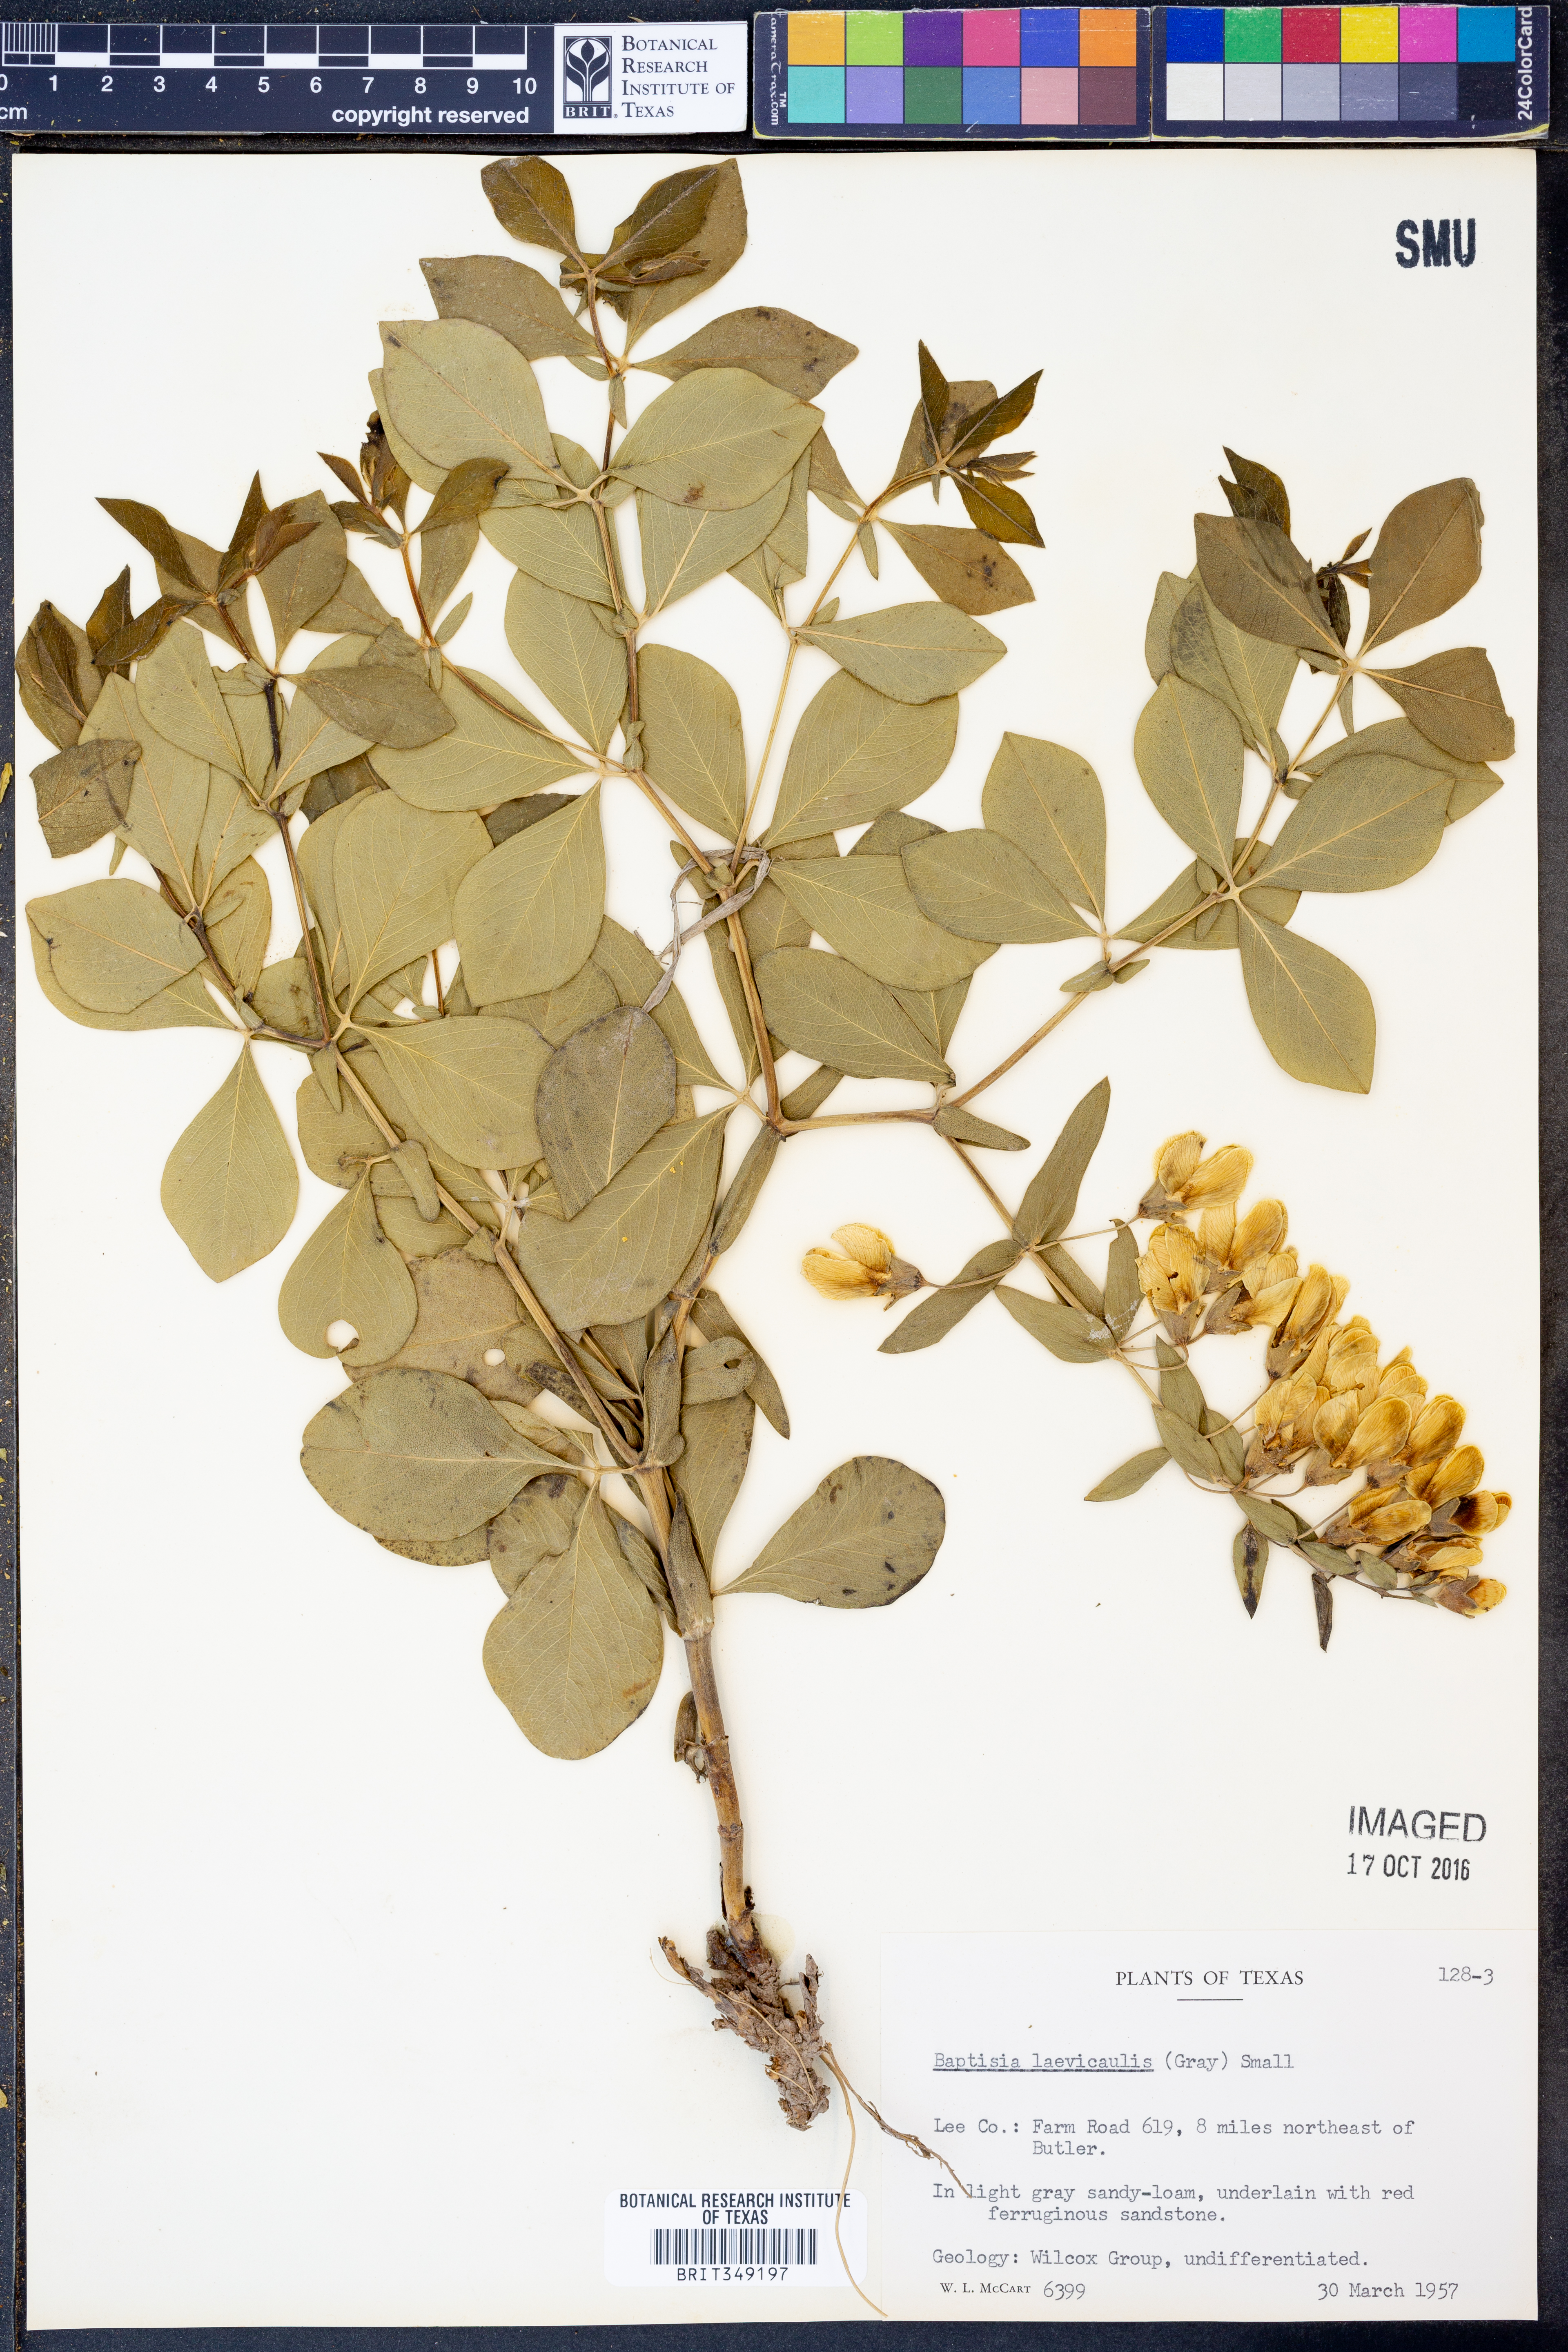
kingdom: Plantae
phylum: Tracheophyta
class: Magnoliopsida
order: Fabales
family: Fabaceae
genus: Baptisia
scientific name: Baptisia bracteata
